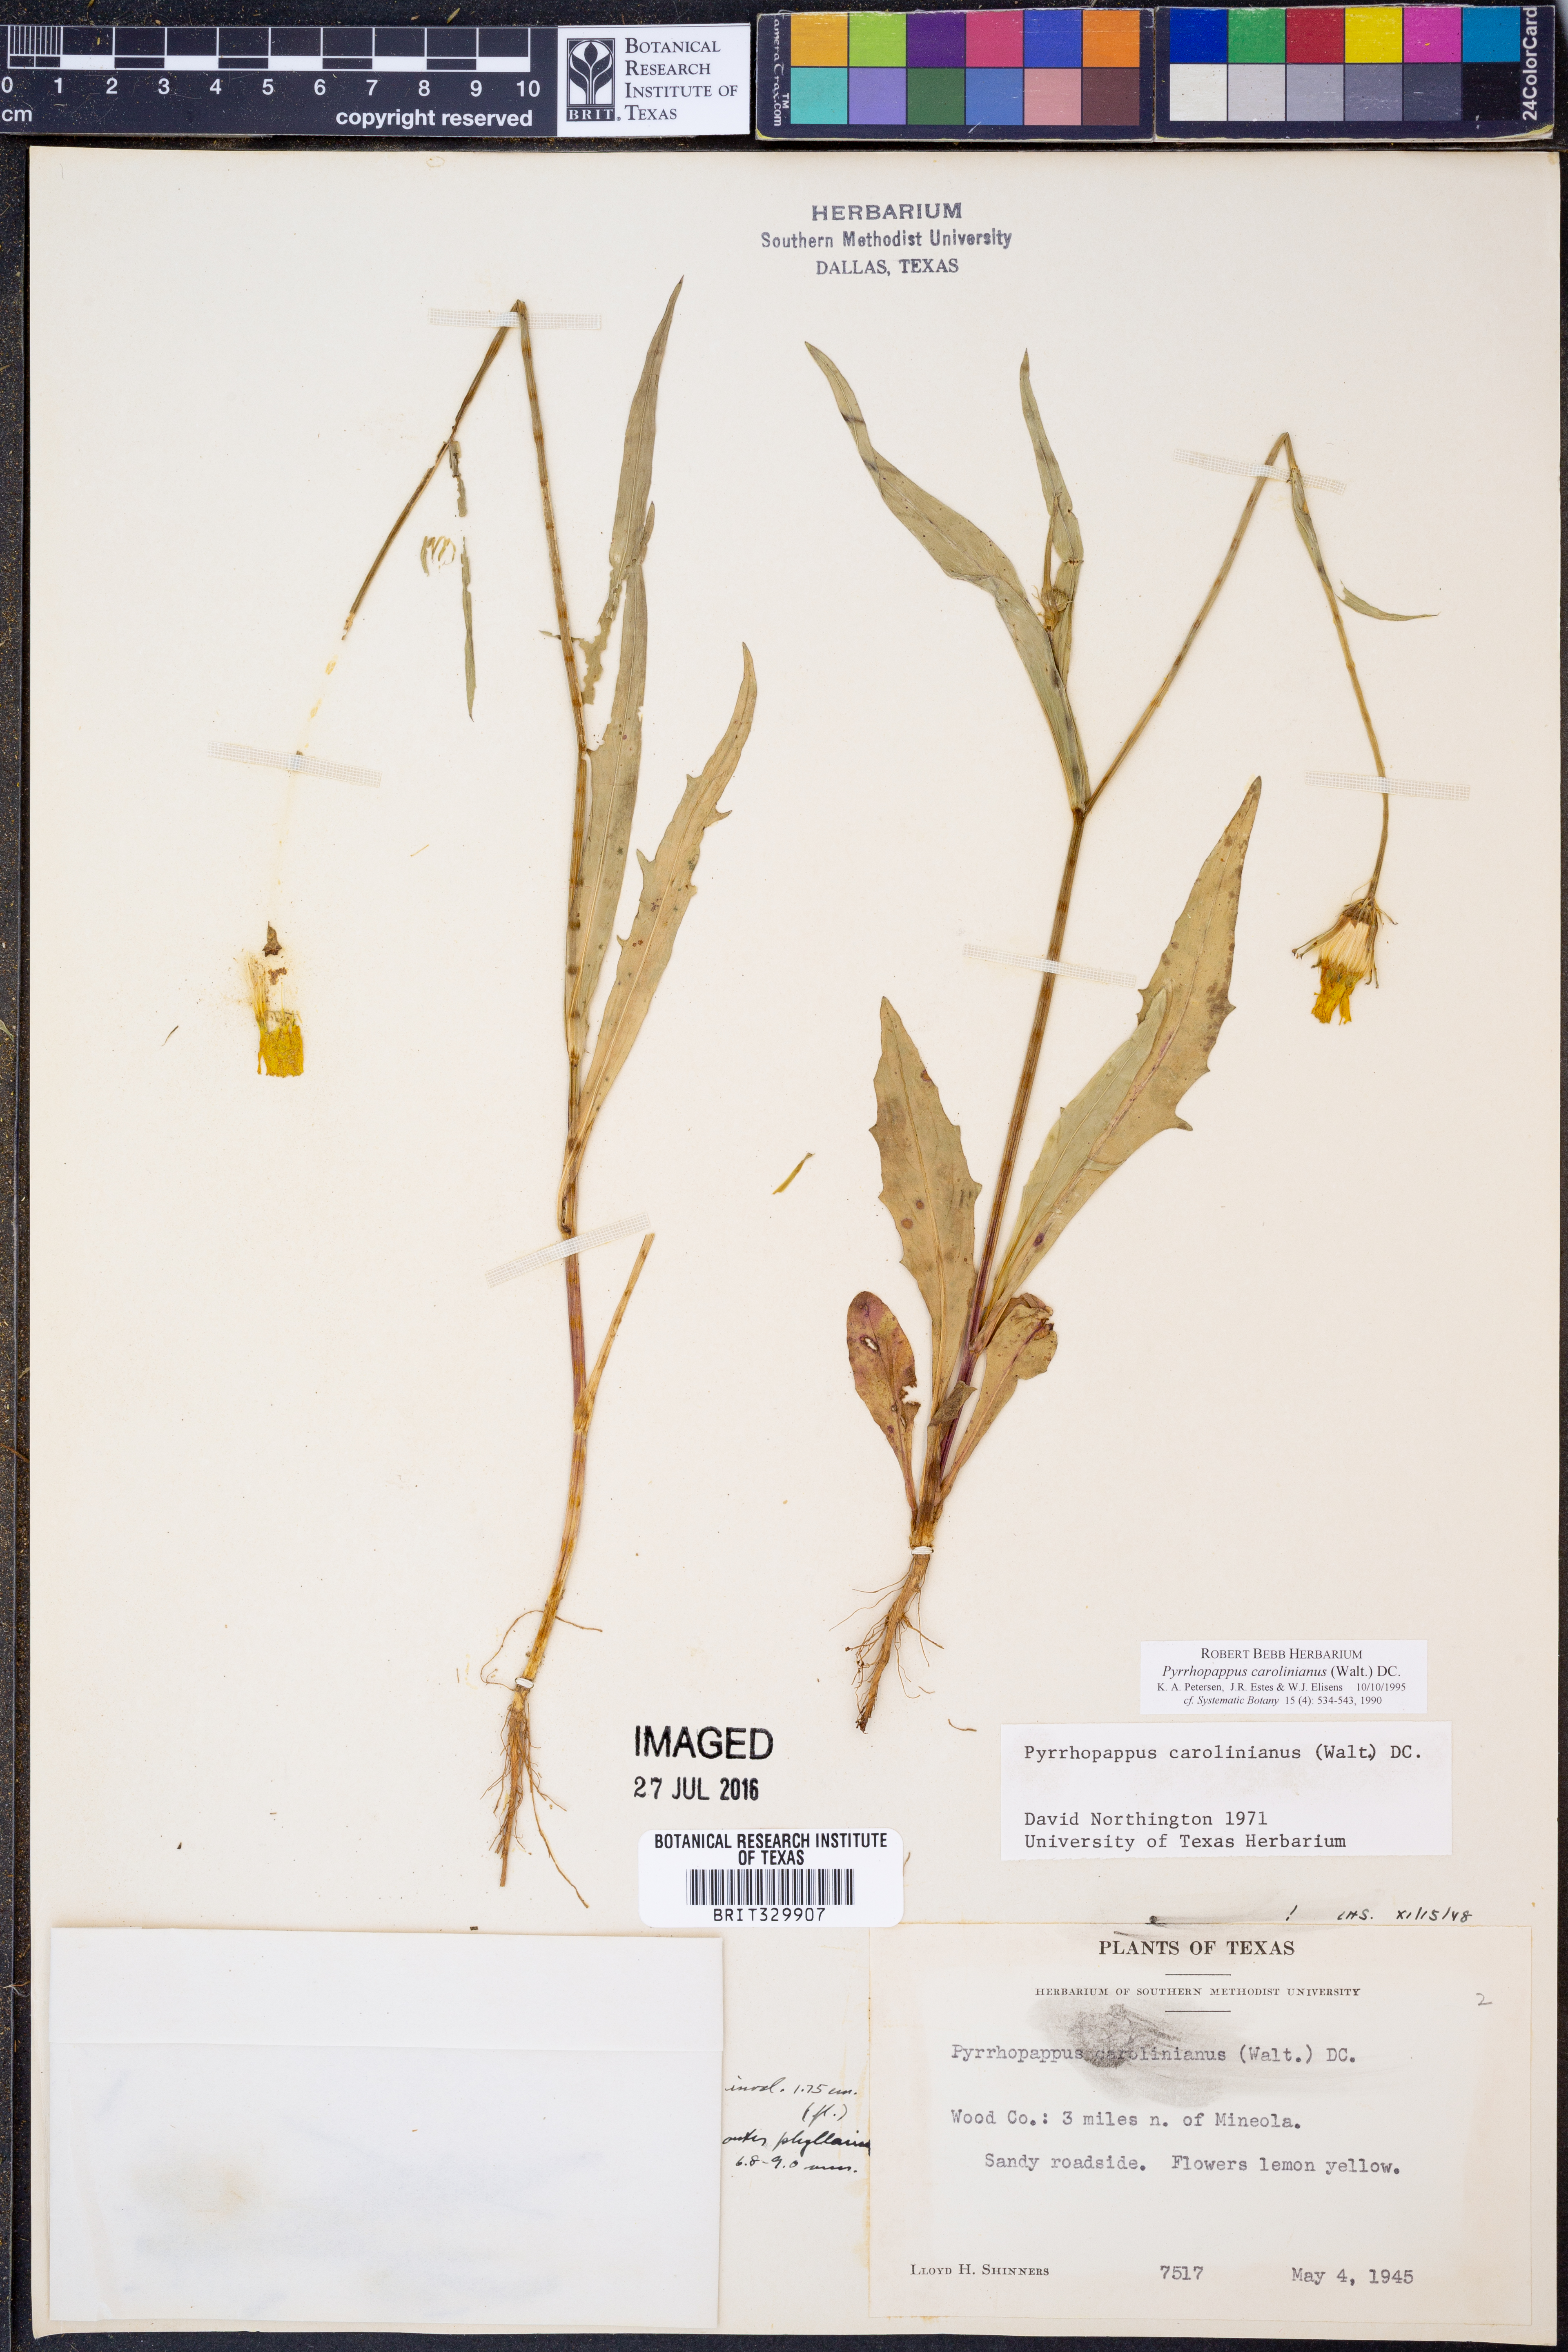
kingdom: Plantae
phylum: Tracheophyta
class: Magnoliopsida
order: Asterales
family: Asteraceae
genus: Pyrrhopappus
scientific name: Pyrrhopappus carolinianus
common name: Carolina desert-chicory
